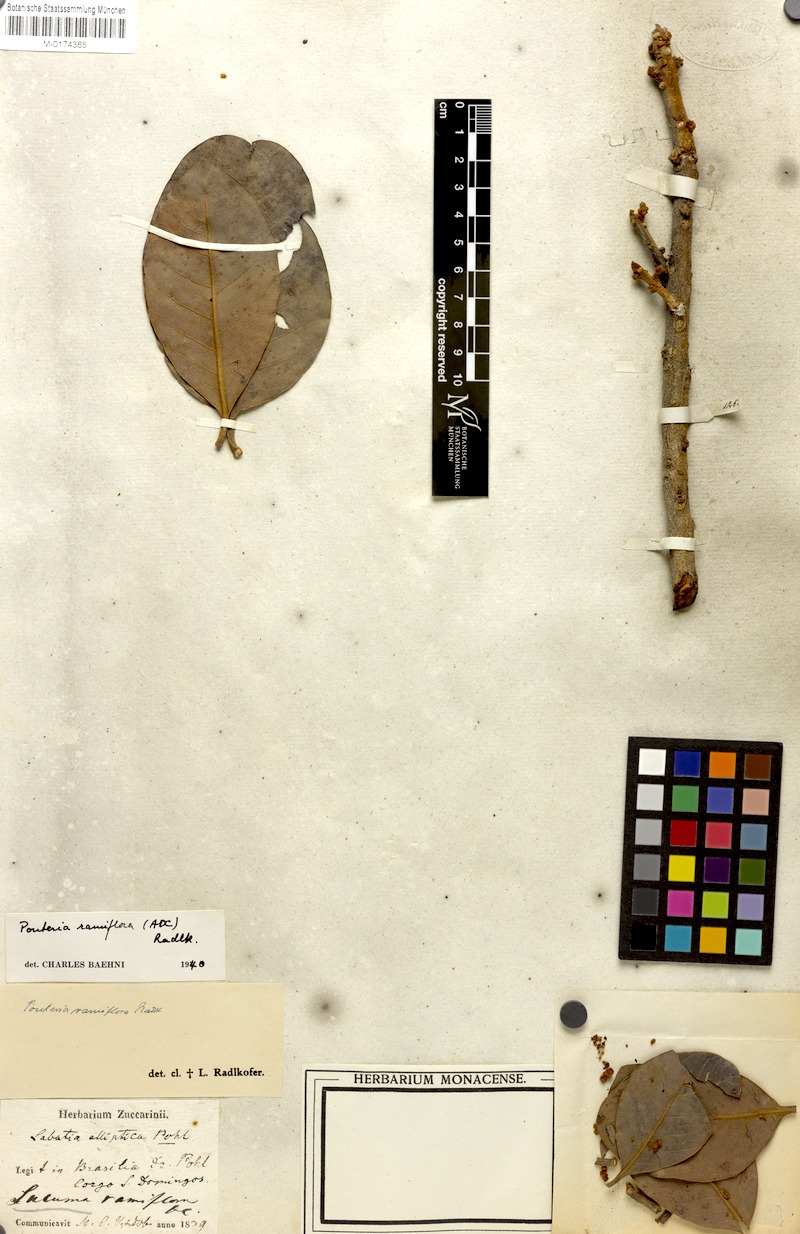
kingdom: Plantae
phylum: Tracheophyta
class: Magnoliopsida
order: Ericales
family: Sapotaceae
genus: Pouteria
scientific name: Pouteria ramiflora
